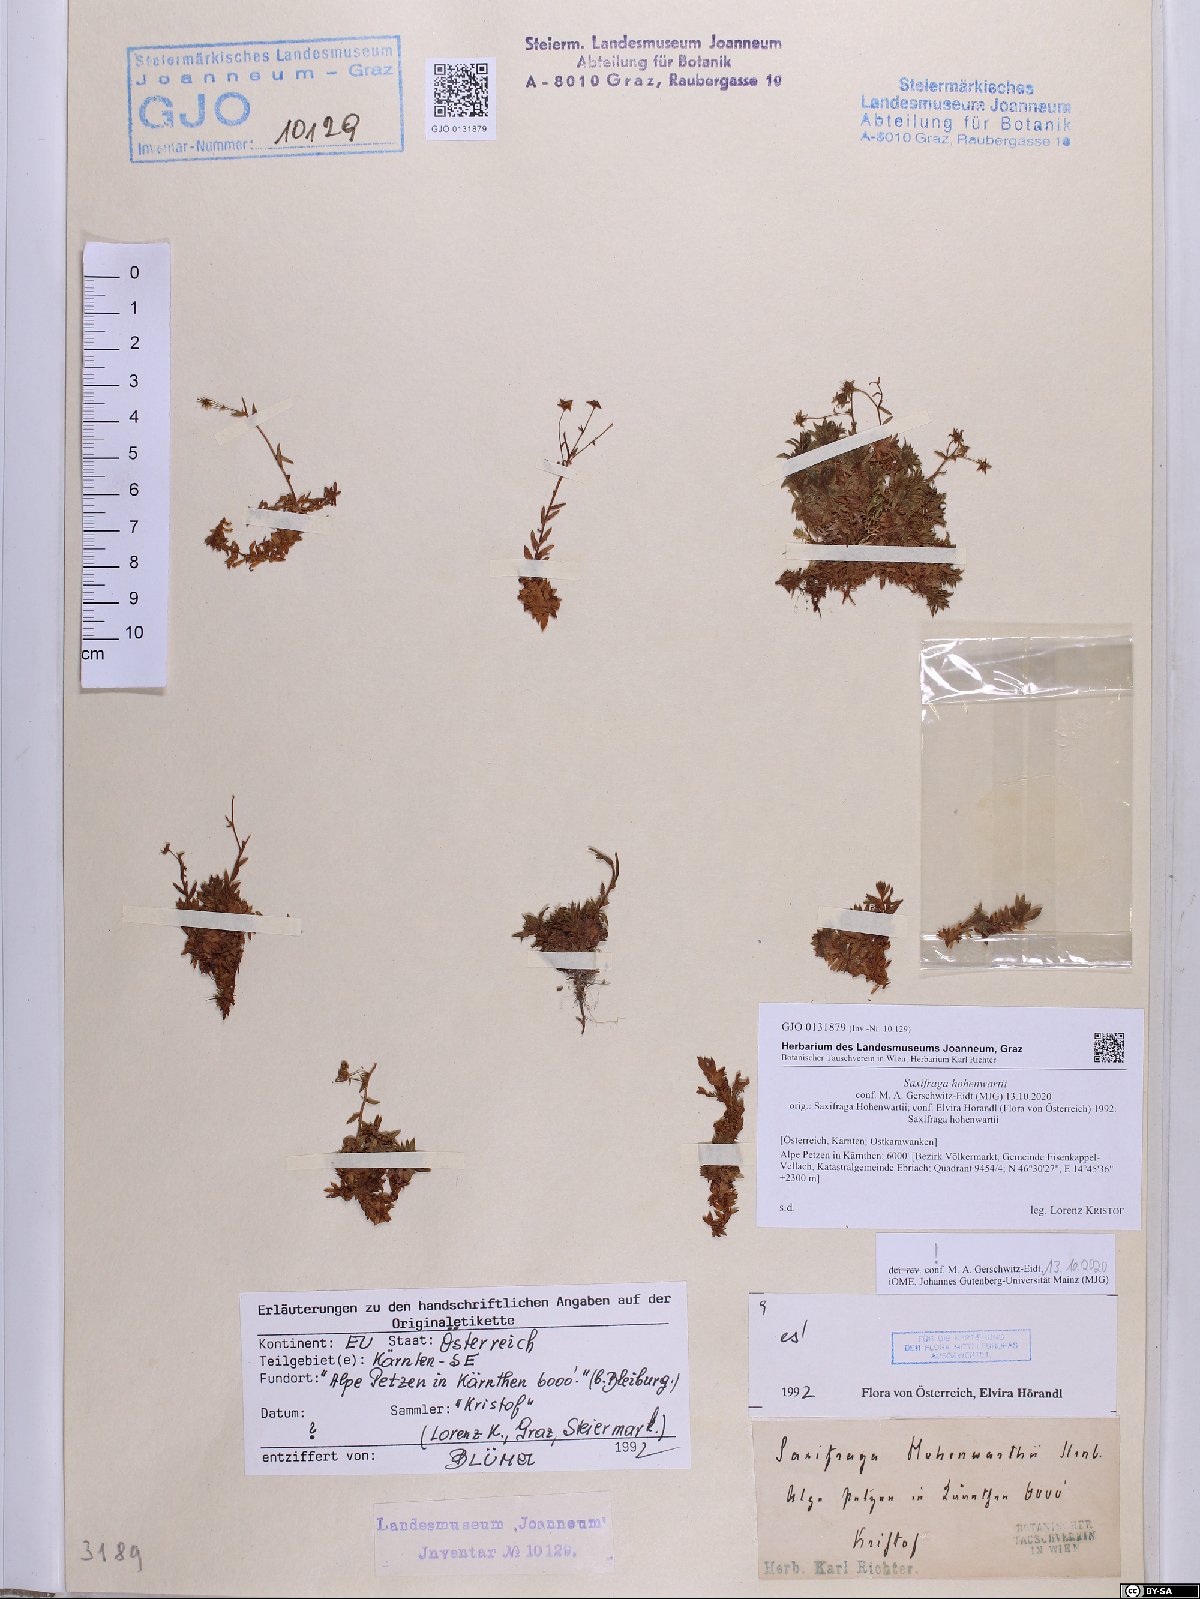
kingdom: Plantae
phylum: Tracheophyta
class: Magnoliopsida
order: Saxifragales
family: Saxifragaceae
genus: Saxifraga
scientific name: Saxifraga hohenwartii
